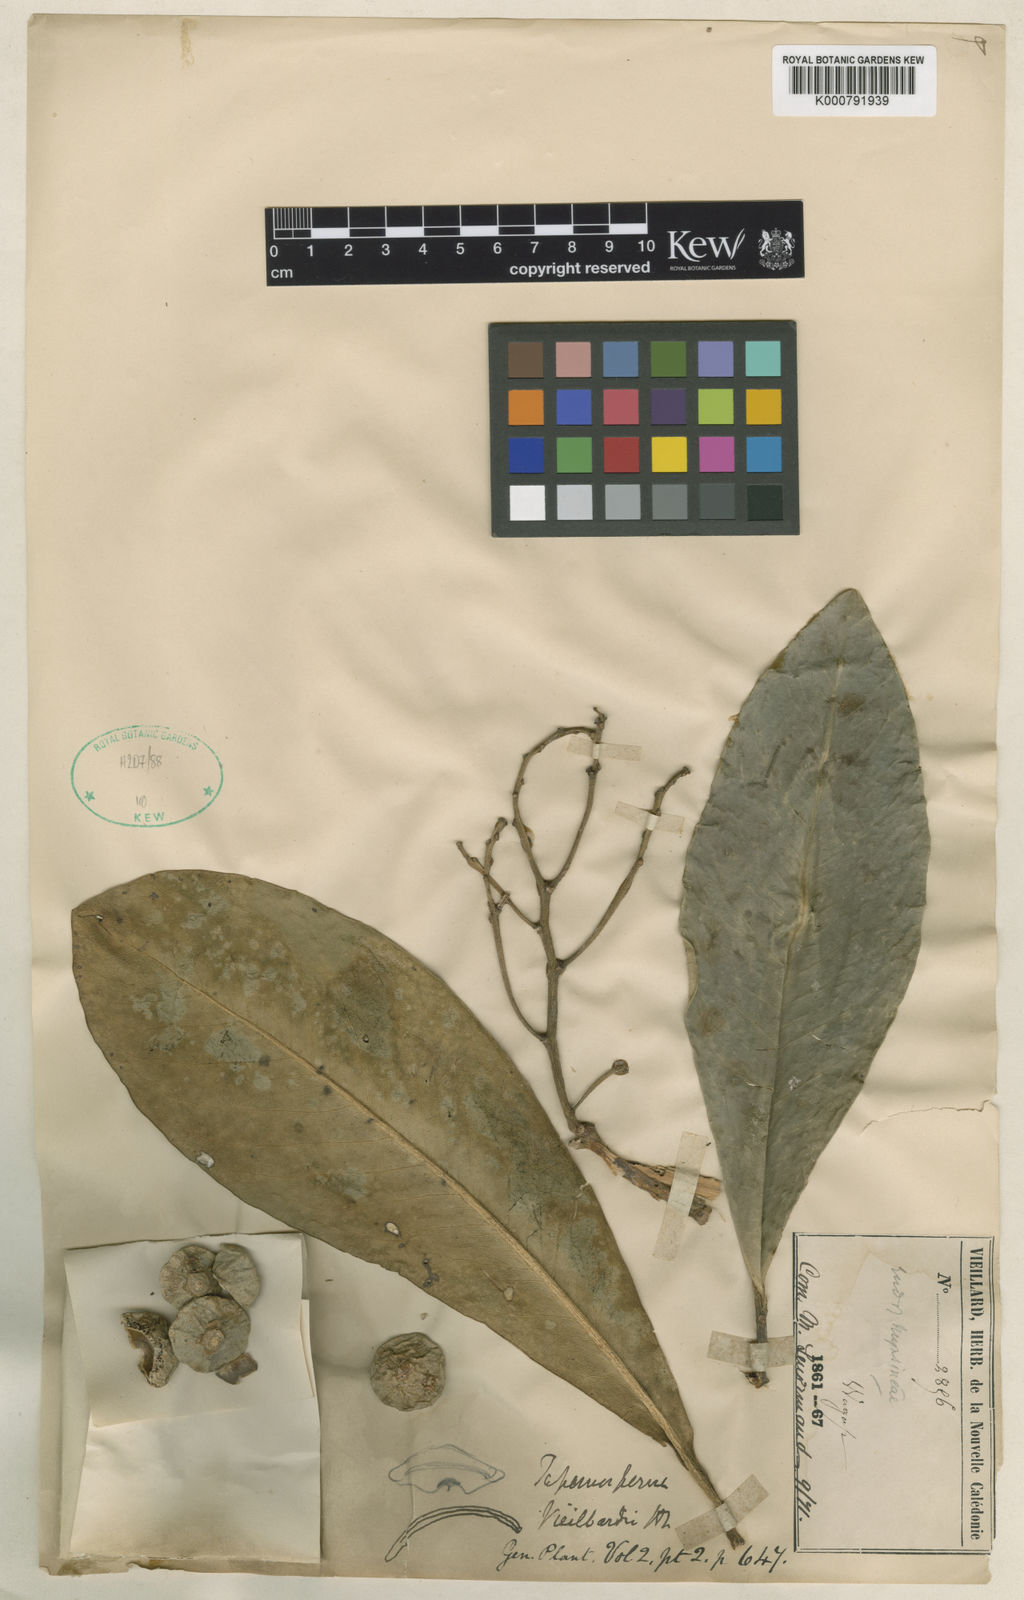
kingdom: Plantae
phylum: Tracheophyta
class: Magnoliopsida
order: Ericales
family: Primulaceae
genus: Tapeinosperma
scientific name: Tapeinosperma vieillardii
